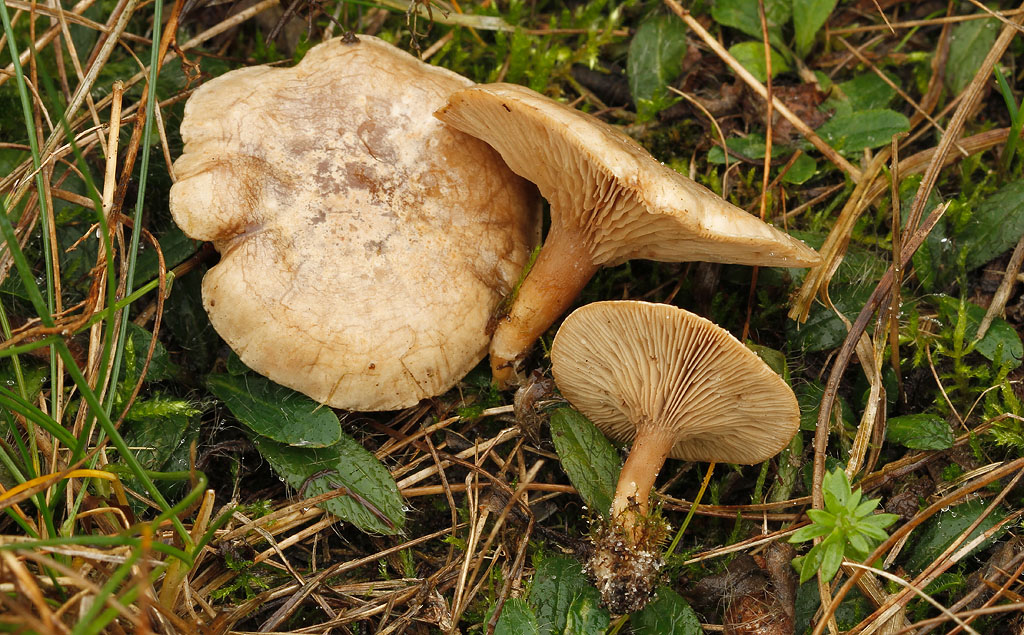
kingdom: Fungi
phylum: Basidiomycota
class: Agaricomycetes
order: Agaricales
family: Tricholomataceae
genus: Lulesia
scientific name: Lulesia
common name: sortnende troldhat
